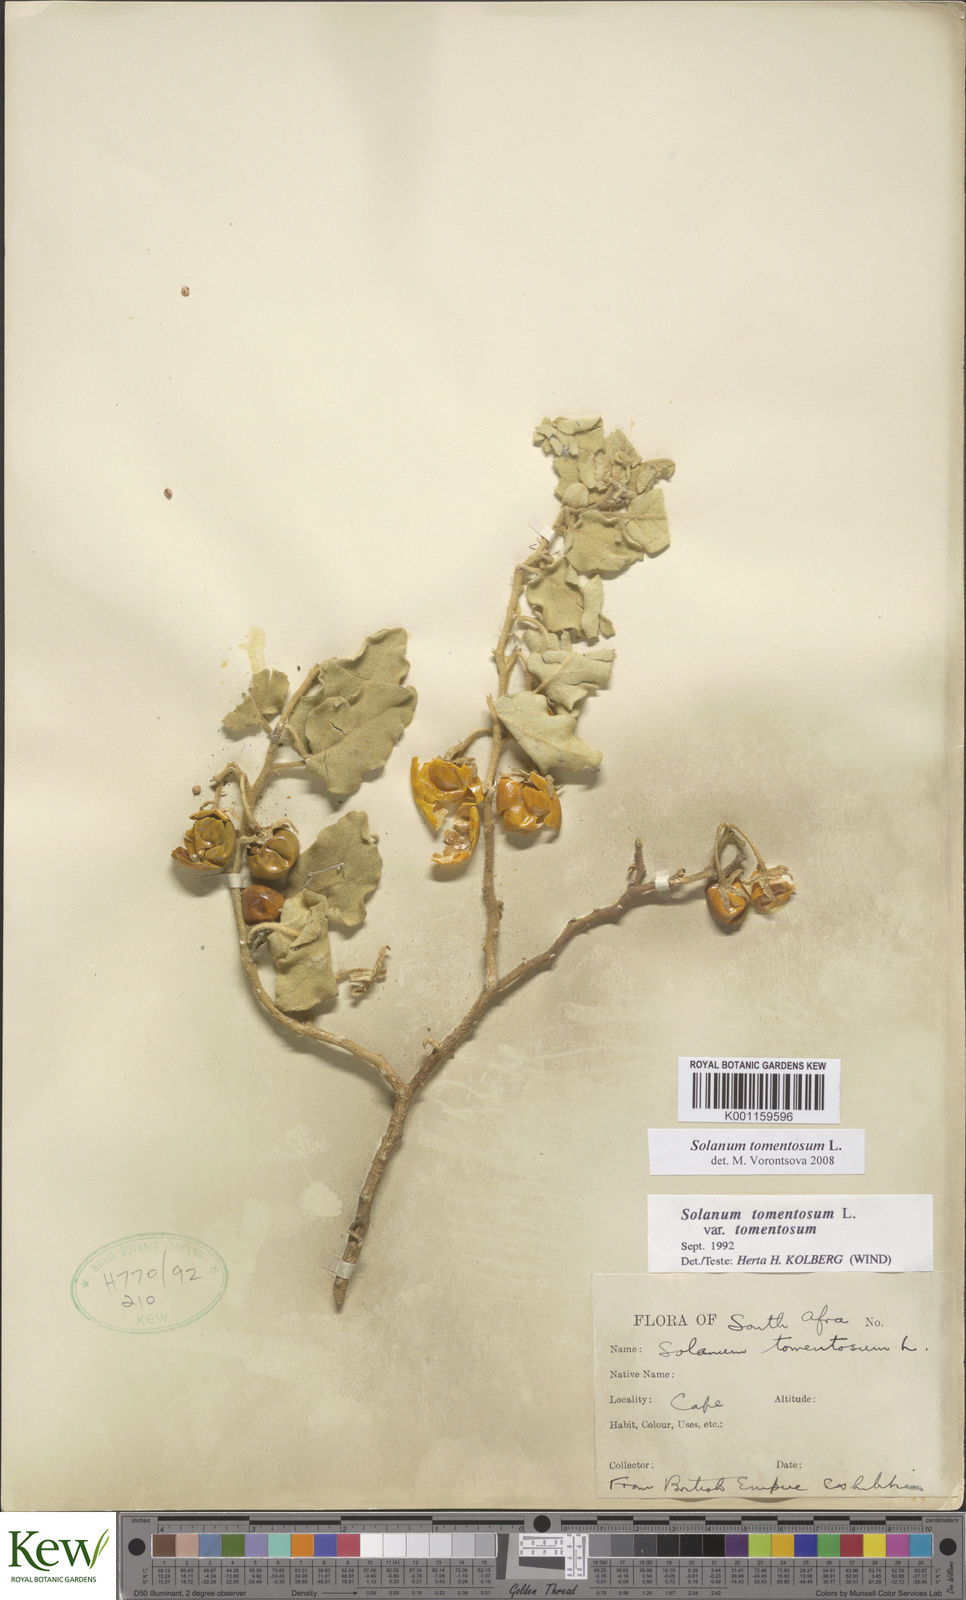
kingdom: Plantae
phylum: Tracheophyta
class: Magnoliopsida
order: Solanales
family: Solanaceae
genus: Solanum
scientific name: Solanum tomentosum
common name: Wild aubergine
